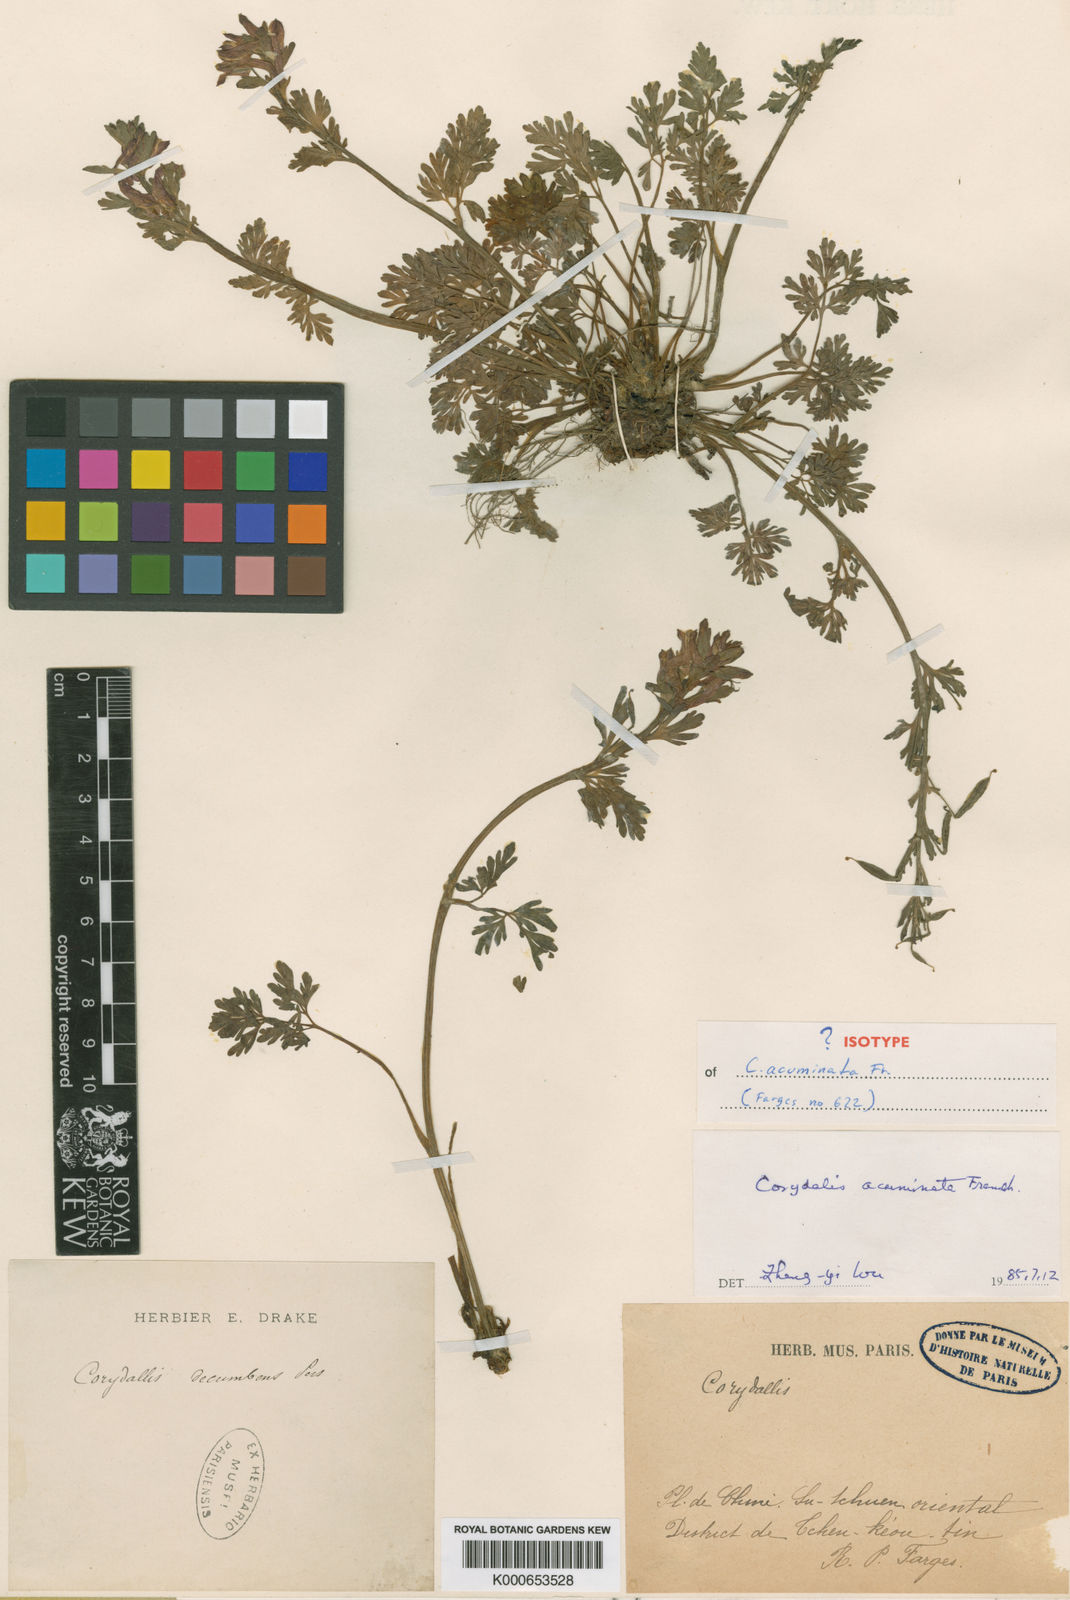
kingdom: Plantae
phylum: Tracheophyta
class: Magnoliopsida
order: Ranunculales
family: Papaveraceae
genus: Corydalis
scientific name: Corydalis acuminata
